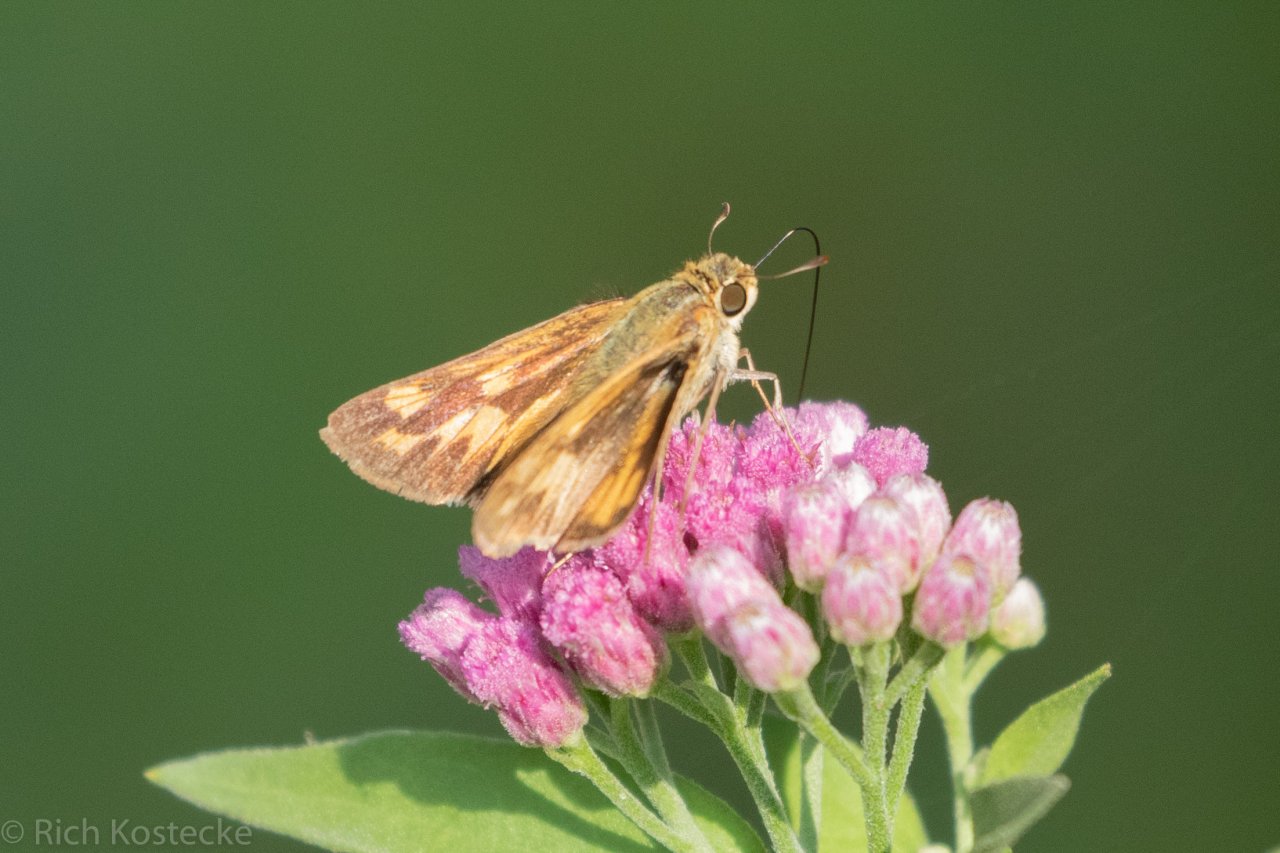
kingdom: Animalia
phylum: Arthropoda
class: Insecta
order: Lepidoptera
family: Hesperiidae
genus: Atalopedes
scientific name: Atalopedes campestris
